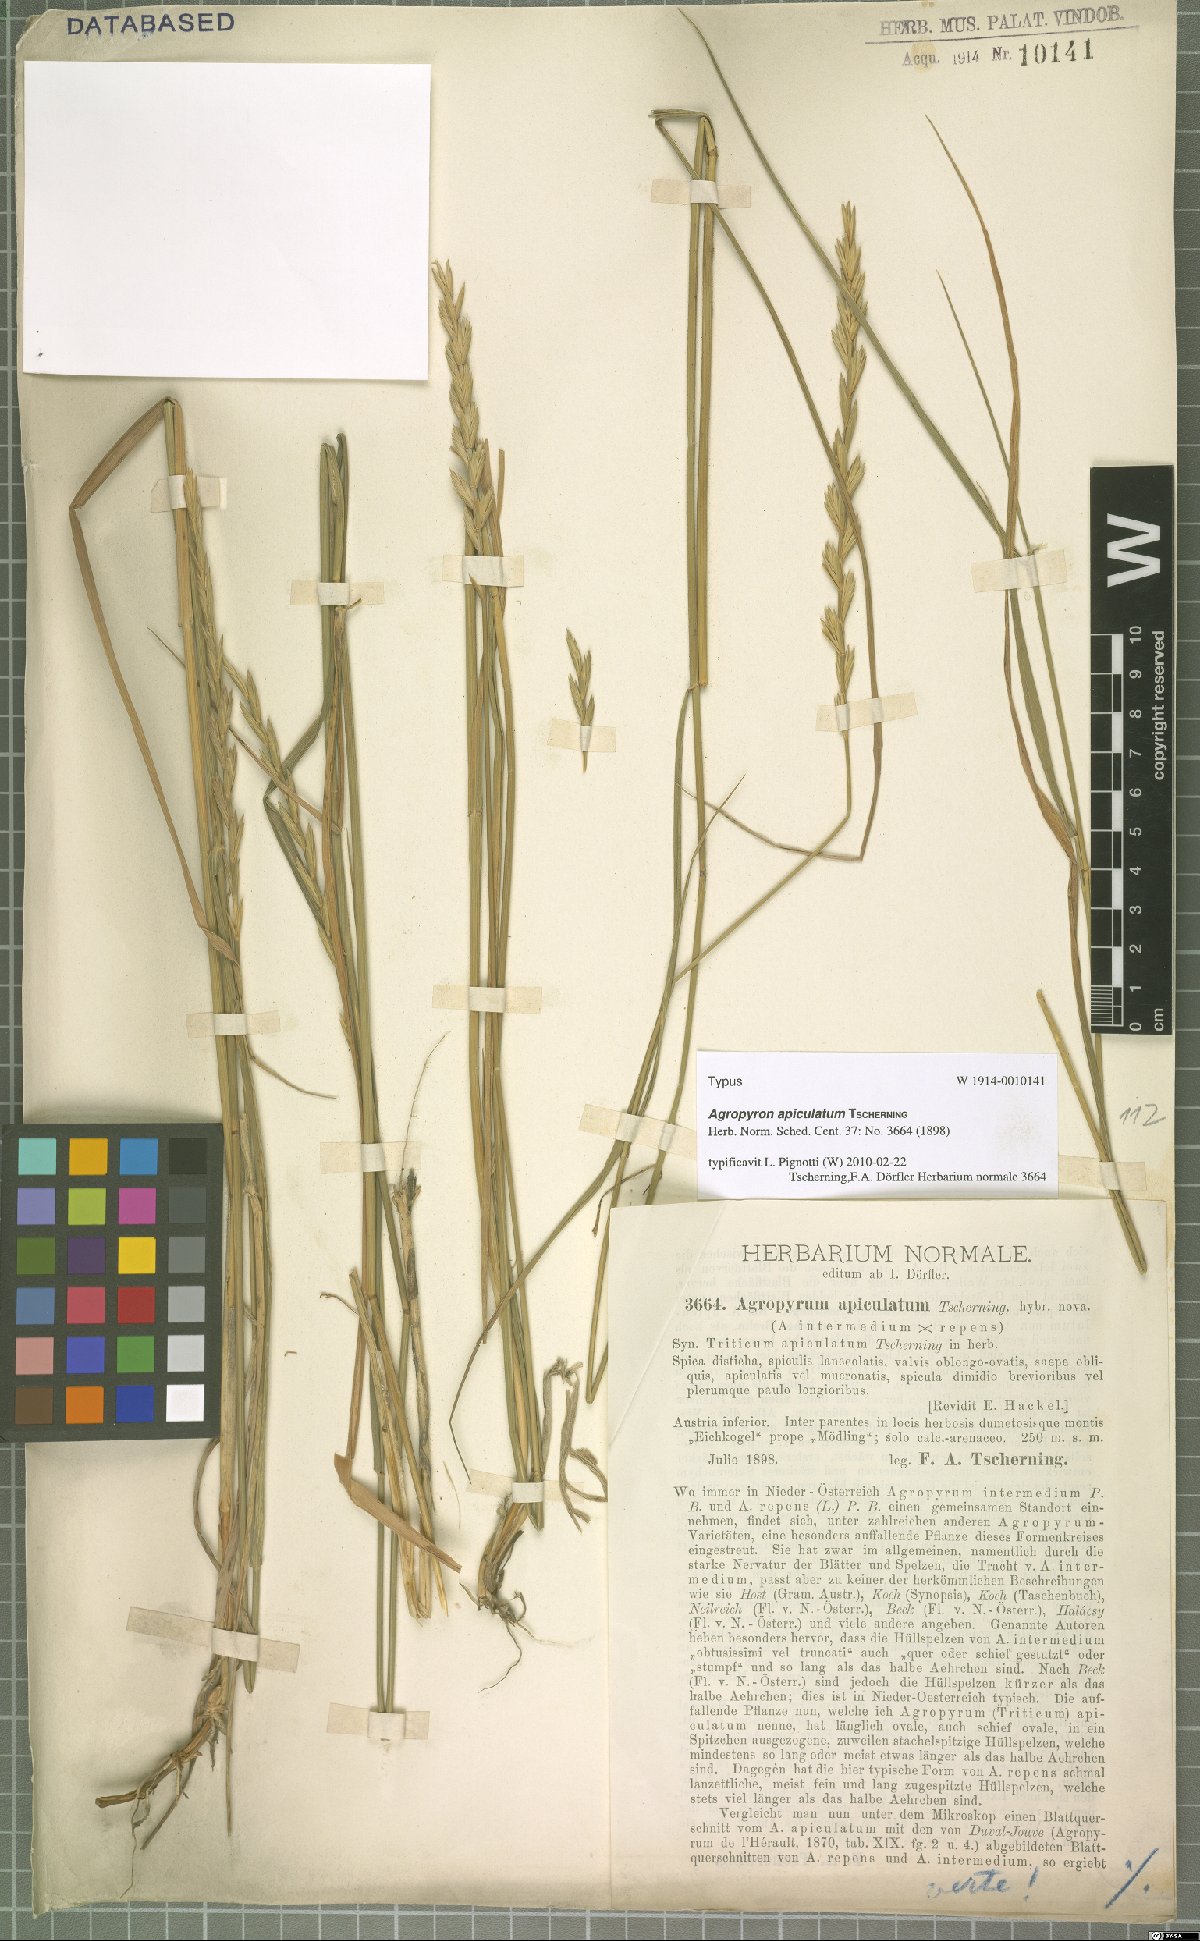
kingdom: Plantae
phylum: Tracheophyta
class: Liliopsida
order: Poales
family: Poaceae
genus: Elymus
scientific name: Elymus apiculatus
